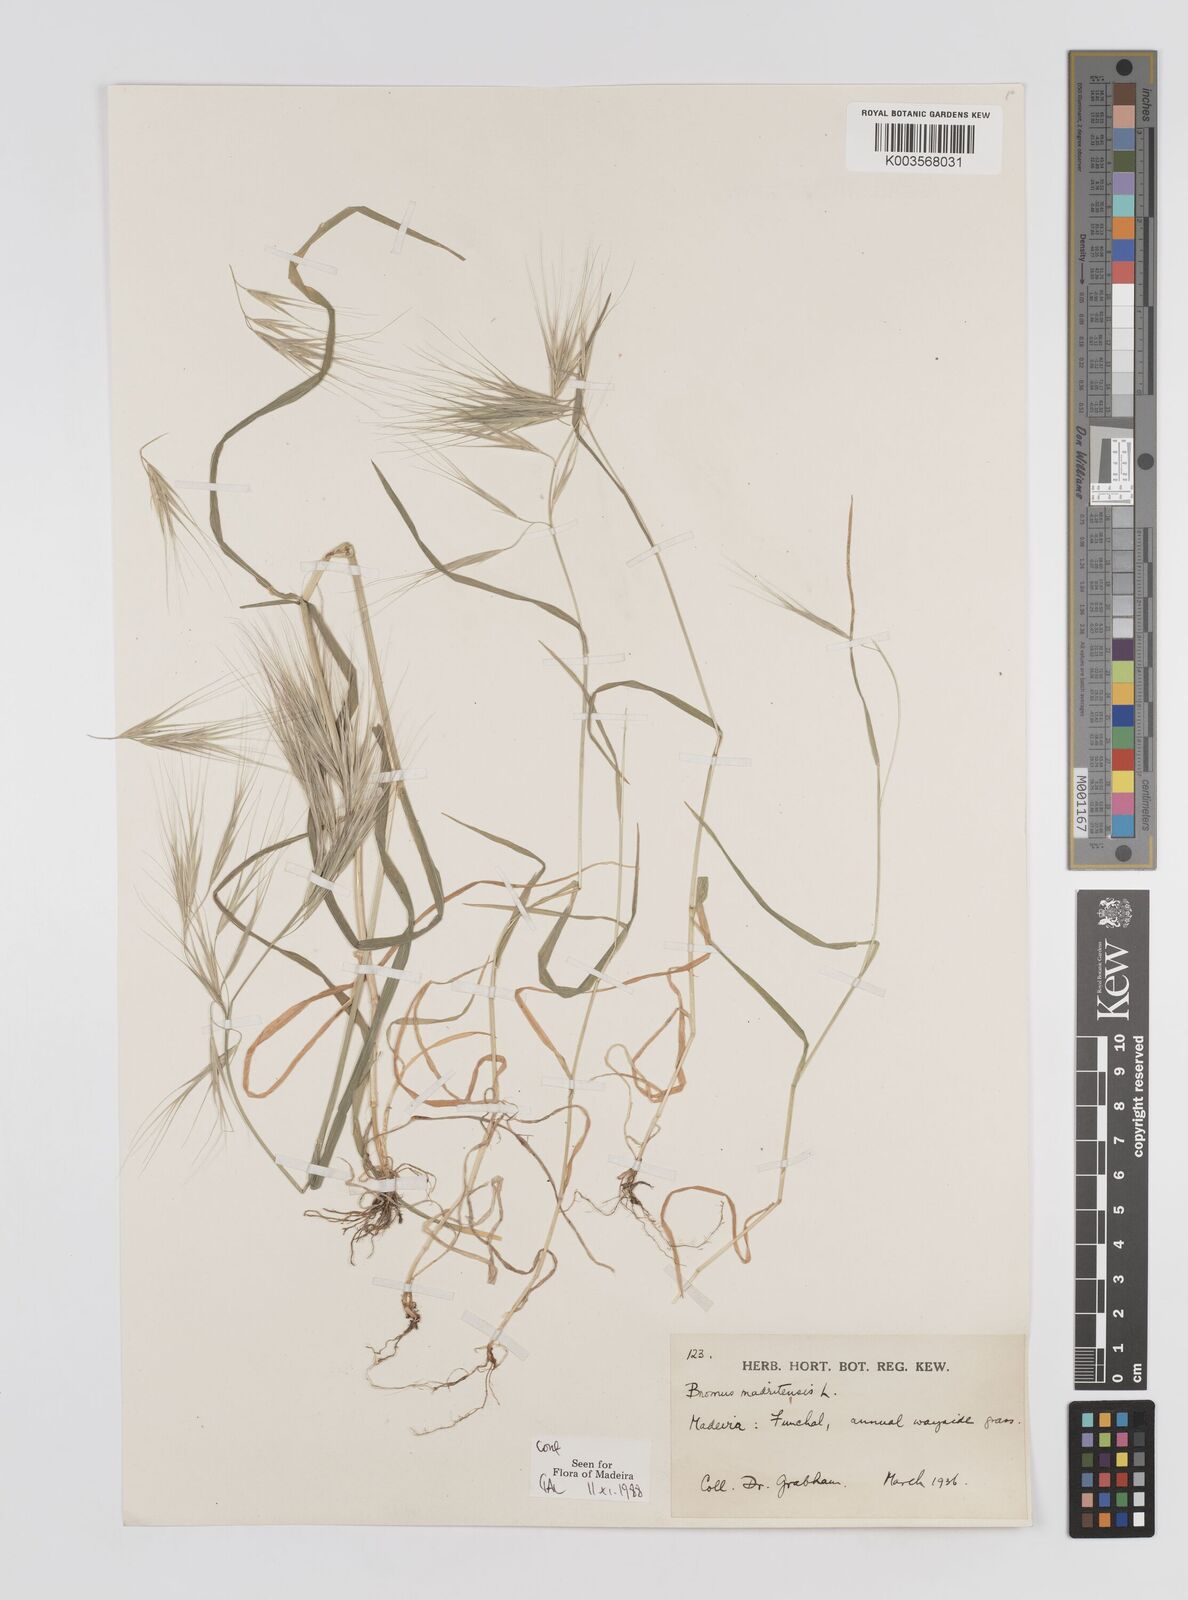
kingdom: Plantae
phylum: Tracheophyta
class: Liliopsida
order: Poales
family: Poaceae
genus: Bromus
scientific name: Bromus
